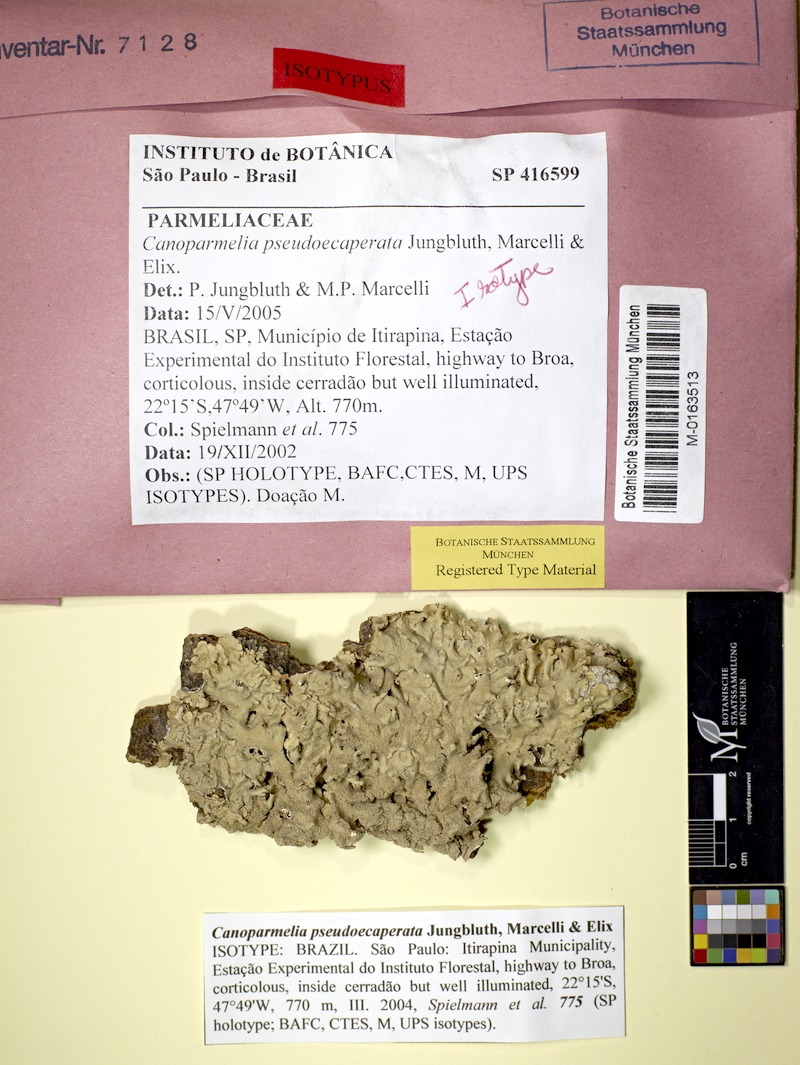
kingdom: Fungi
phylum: Ascomycota
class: Lecanoromycetes
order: Lecanorales
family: Parmeliaceae
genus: Canoparmelia
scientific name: Canoparmelia pseudoecaperata
